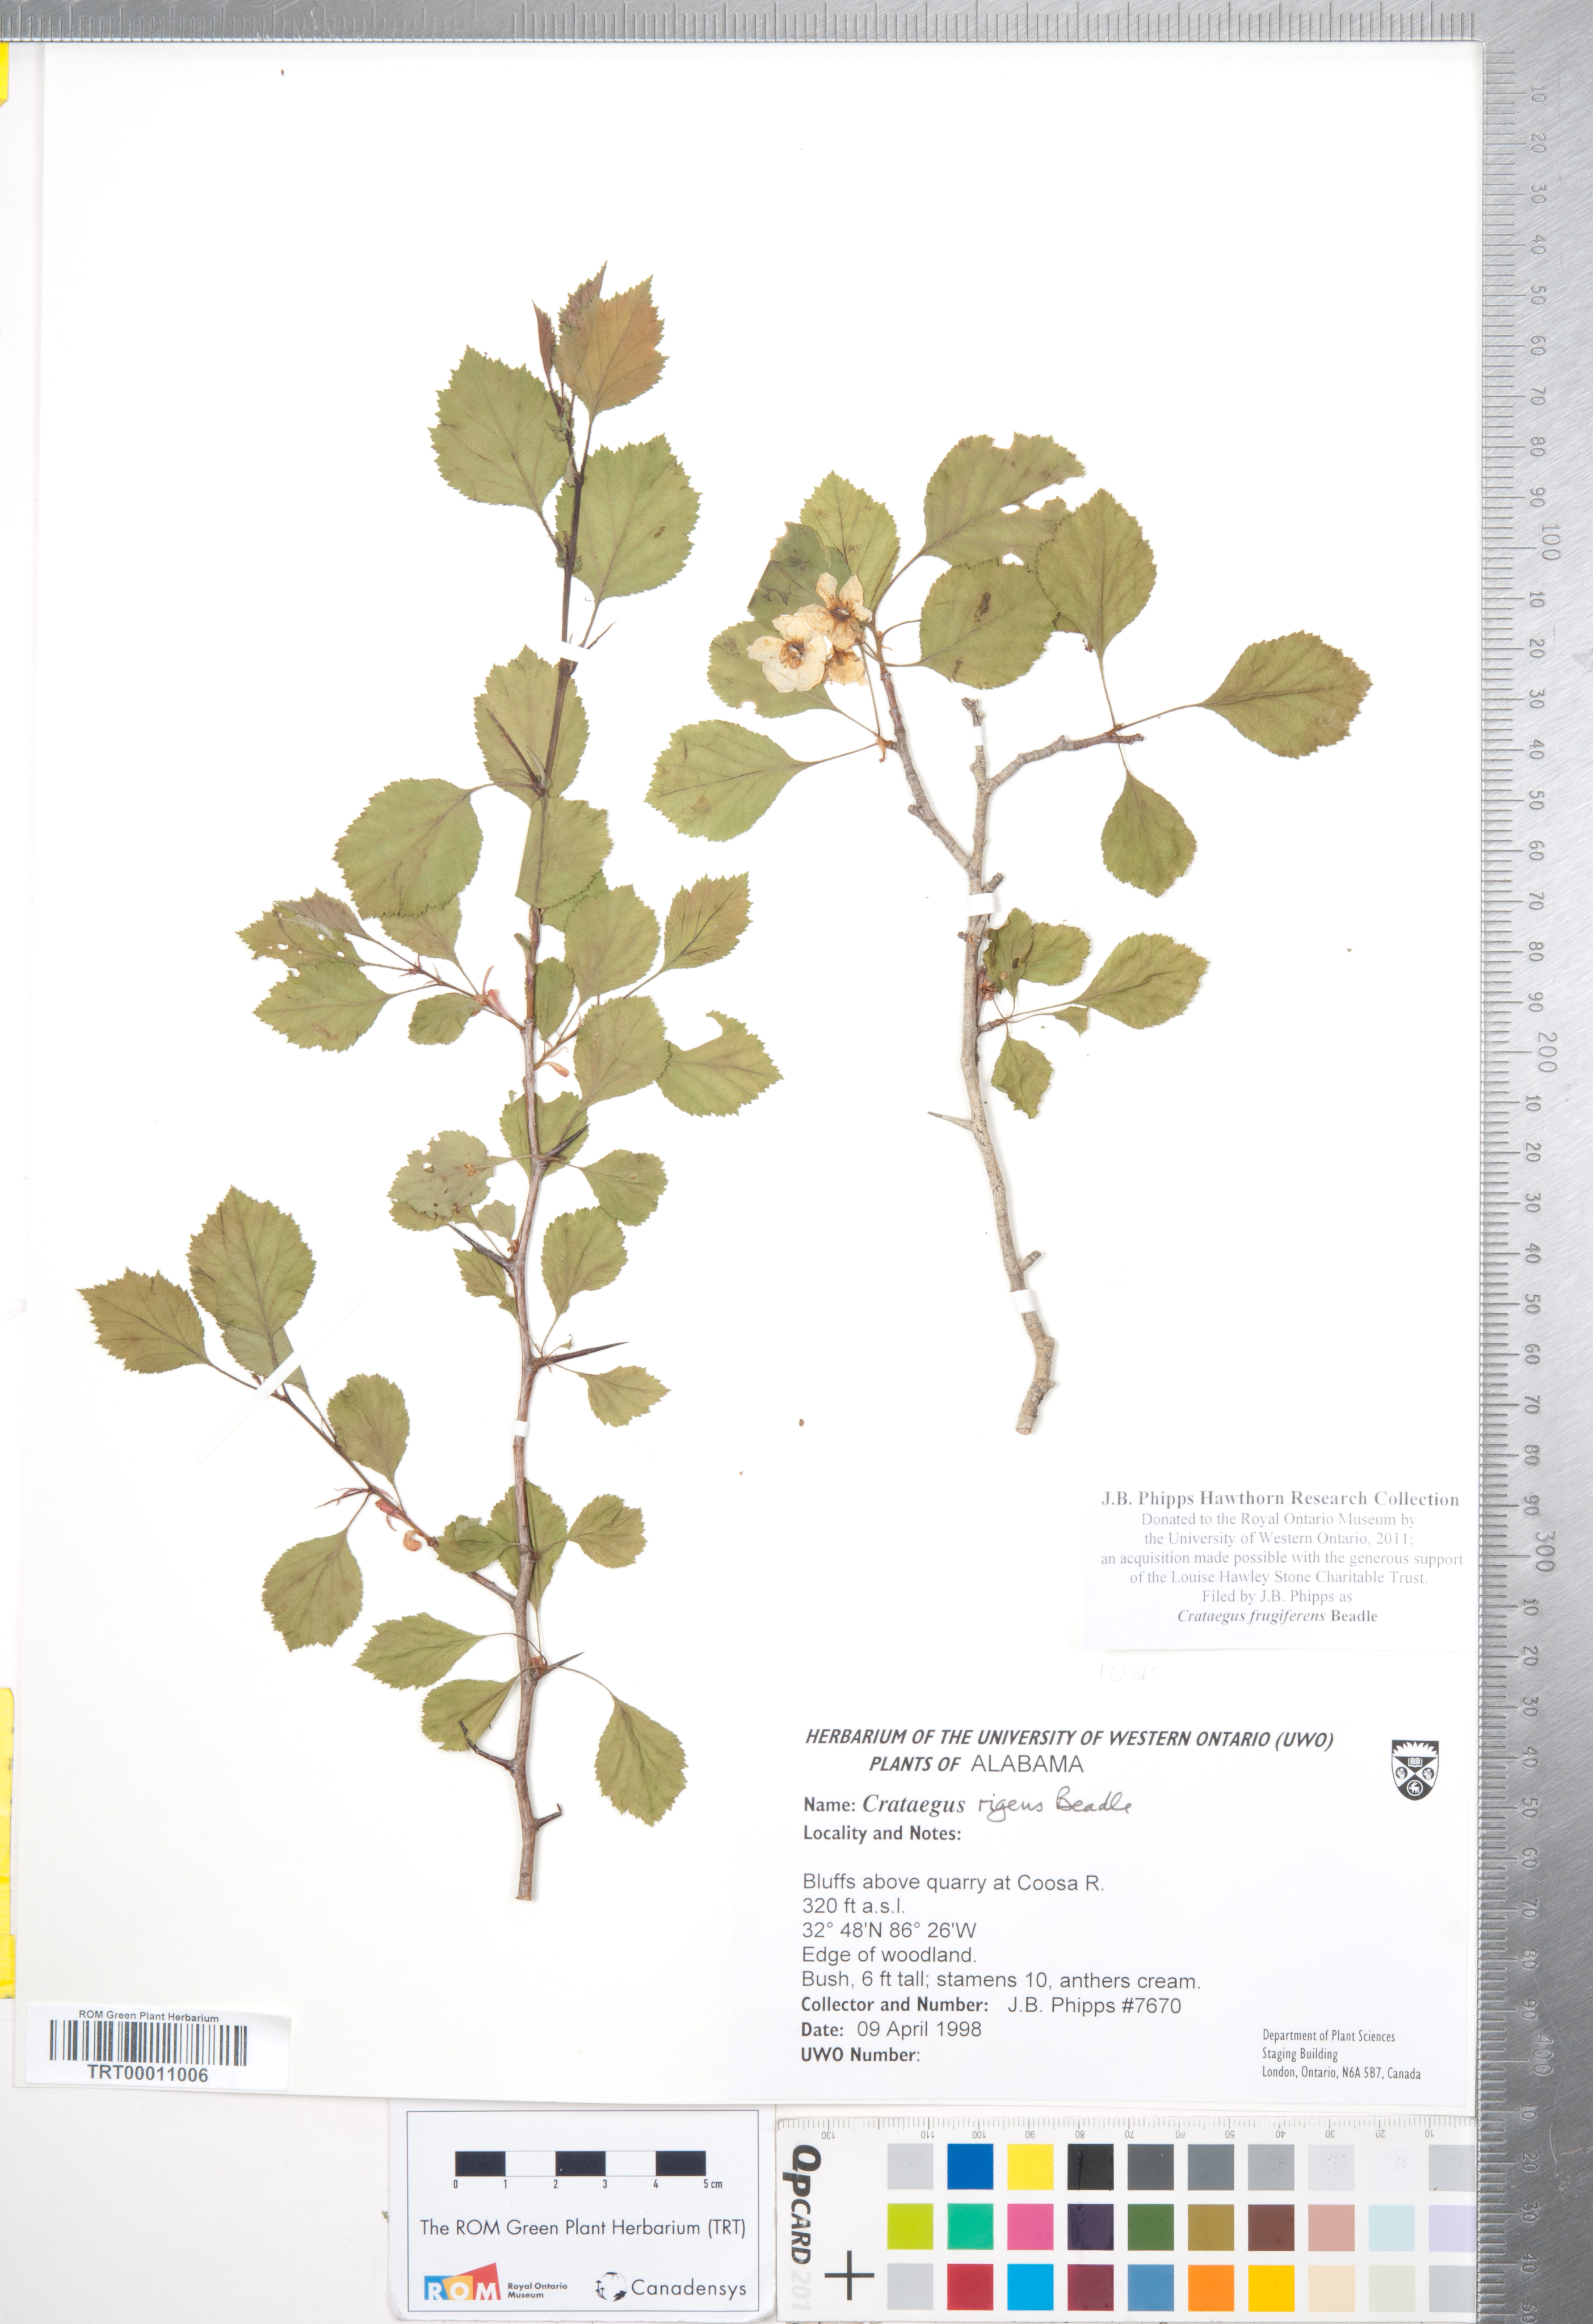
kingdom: Plantae
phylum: Tracheophyta
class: Magnoliopsida
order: Rosales
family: Rosaceae
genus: Crataegus
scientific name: Crataegus alleghaniensis
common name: Allegheny hawthorn
